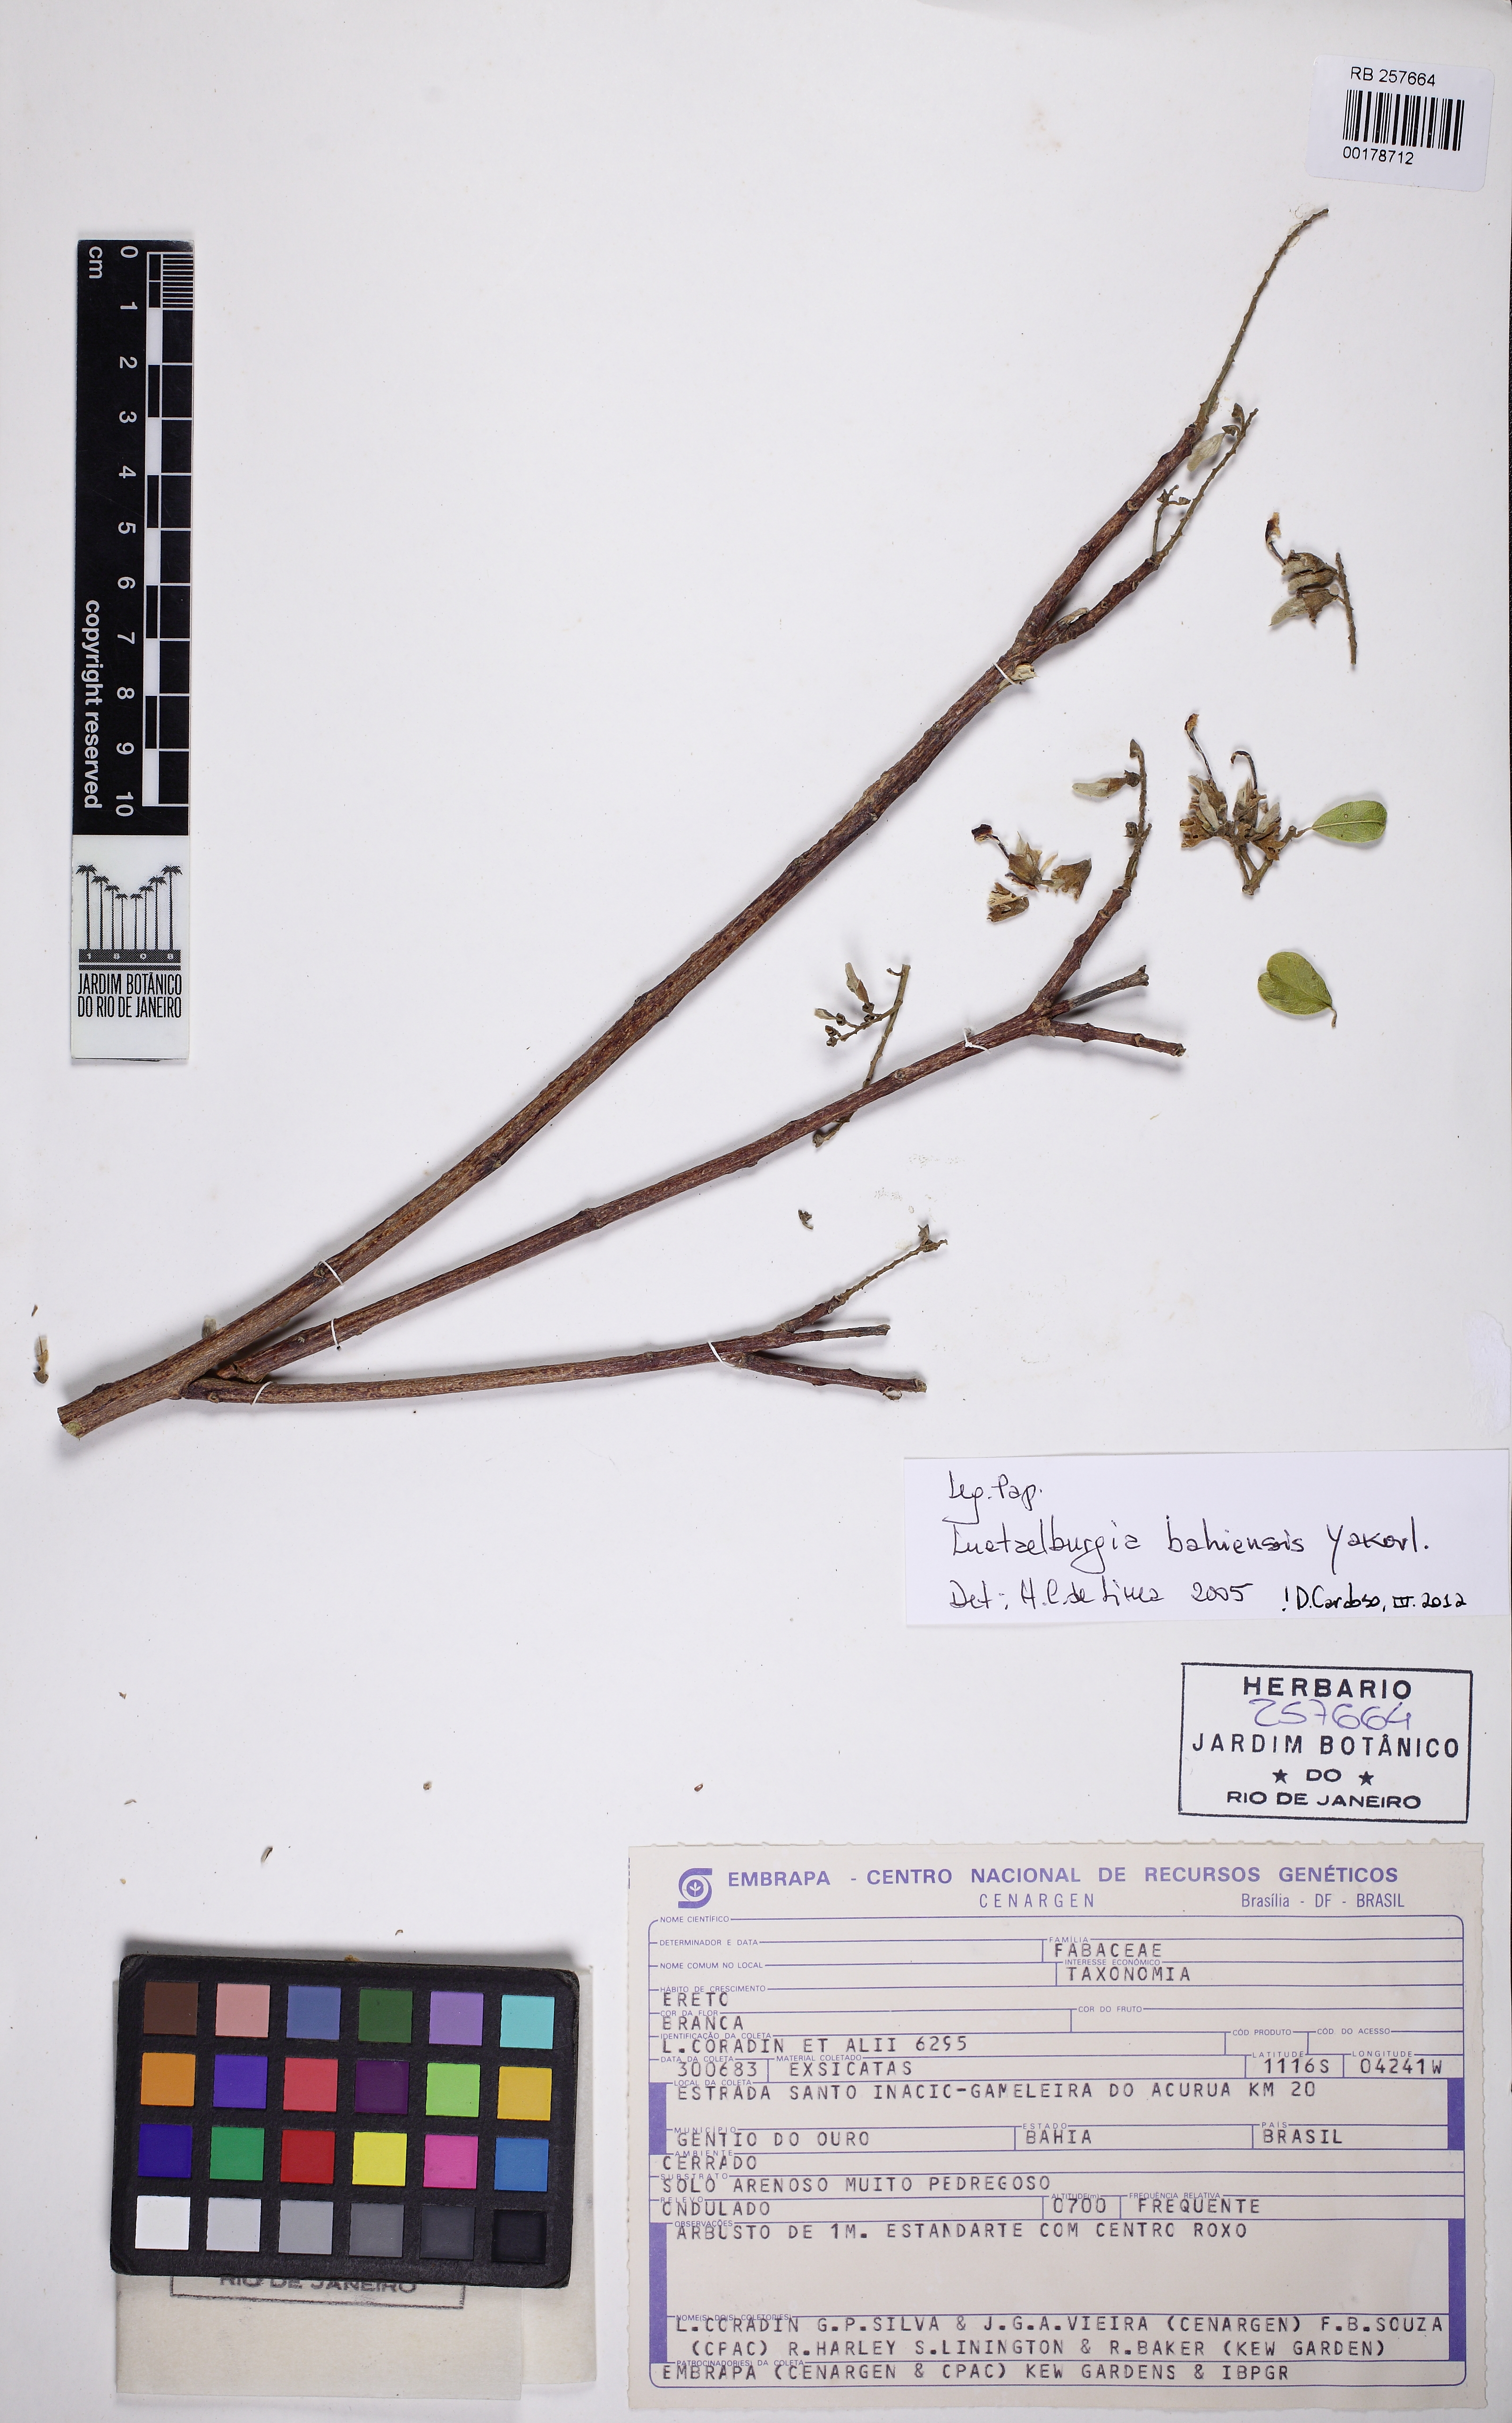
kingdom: Plantae
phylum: Tracheophyta
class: Magnoliopsida
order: Fabales
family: Fabaceae
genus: Luetzelburgia
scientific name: Luetzelburgia bahiensis
